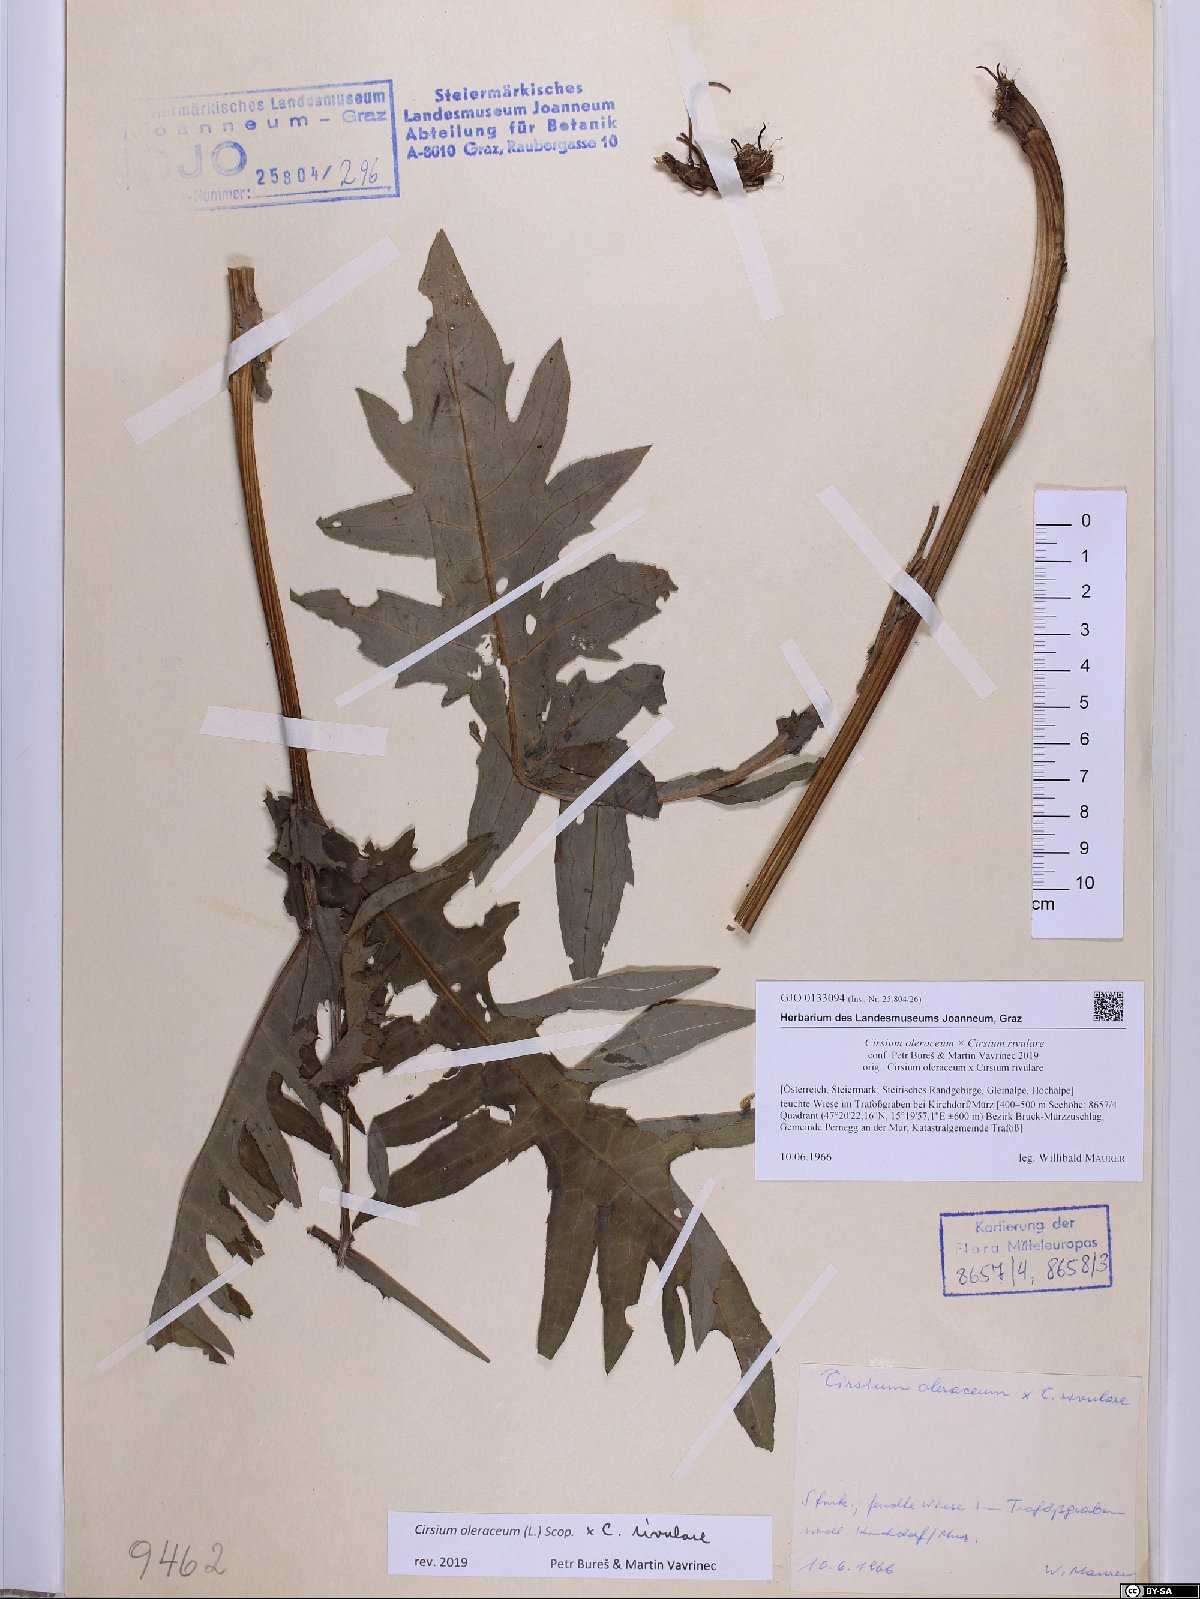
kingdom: Plantae
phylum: Tracheophyta
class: Magnoliopsida
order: Asterales
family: Asteraceae
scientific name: Asteraceae
